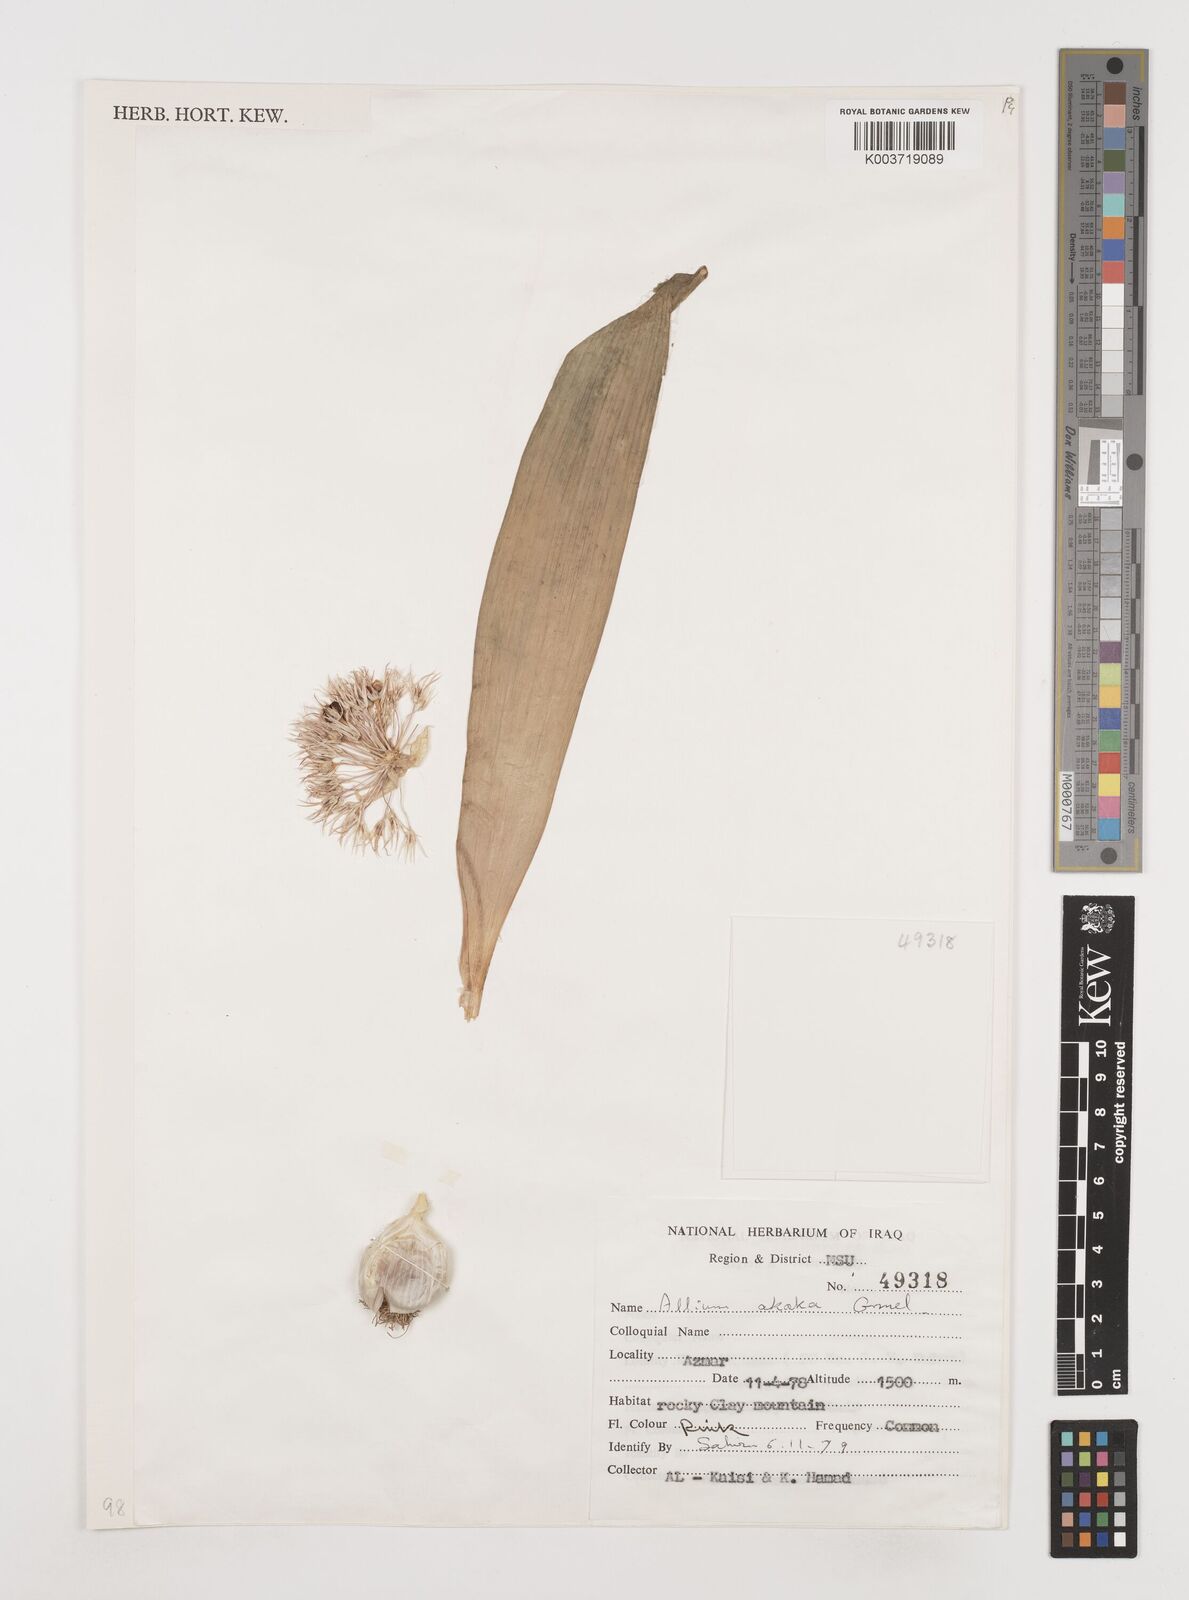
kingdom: Plantae
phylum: Tracheophyta
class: Liliopsida
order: Asparagales
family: Amaryllidaceae
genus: Allium
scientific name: Allium akaka
